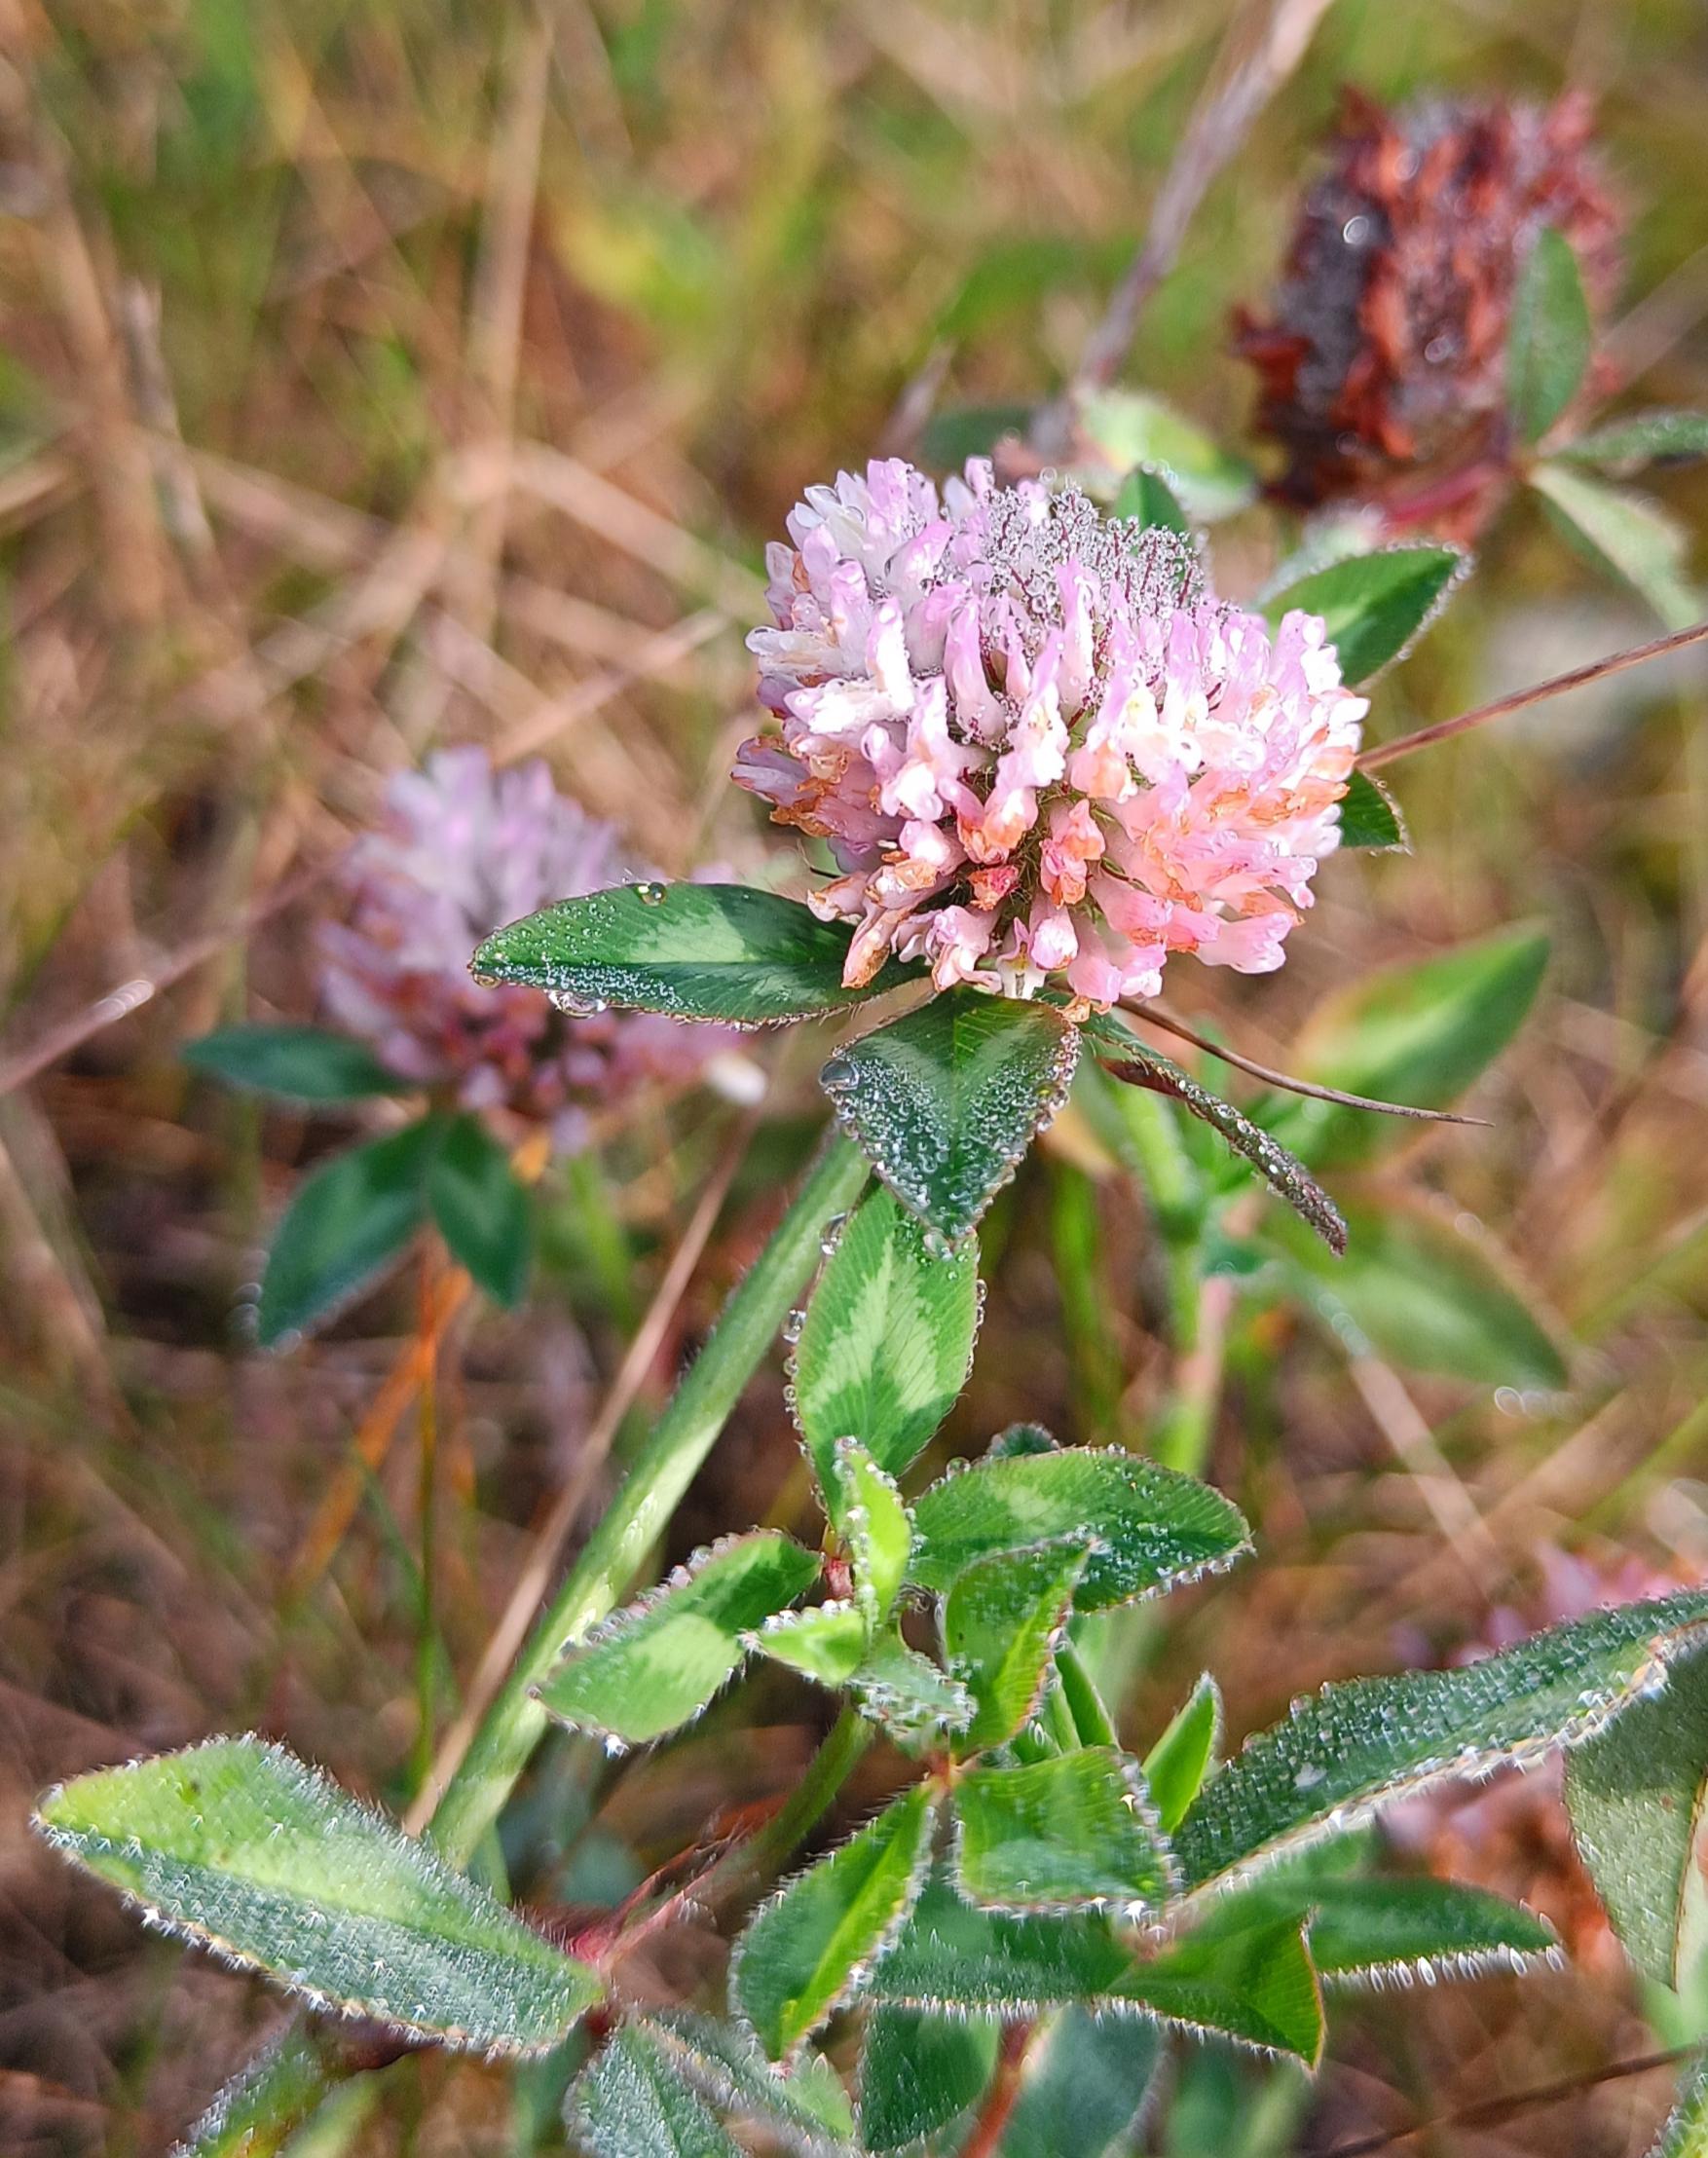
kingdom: Plantae
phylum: Tracheophyta
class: Magnoliopsida
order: Fabales
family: Fabaceae
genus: Trifolium
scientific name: Trifolium pratense
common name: Rød-kløver
